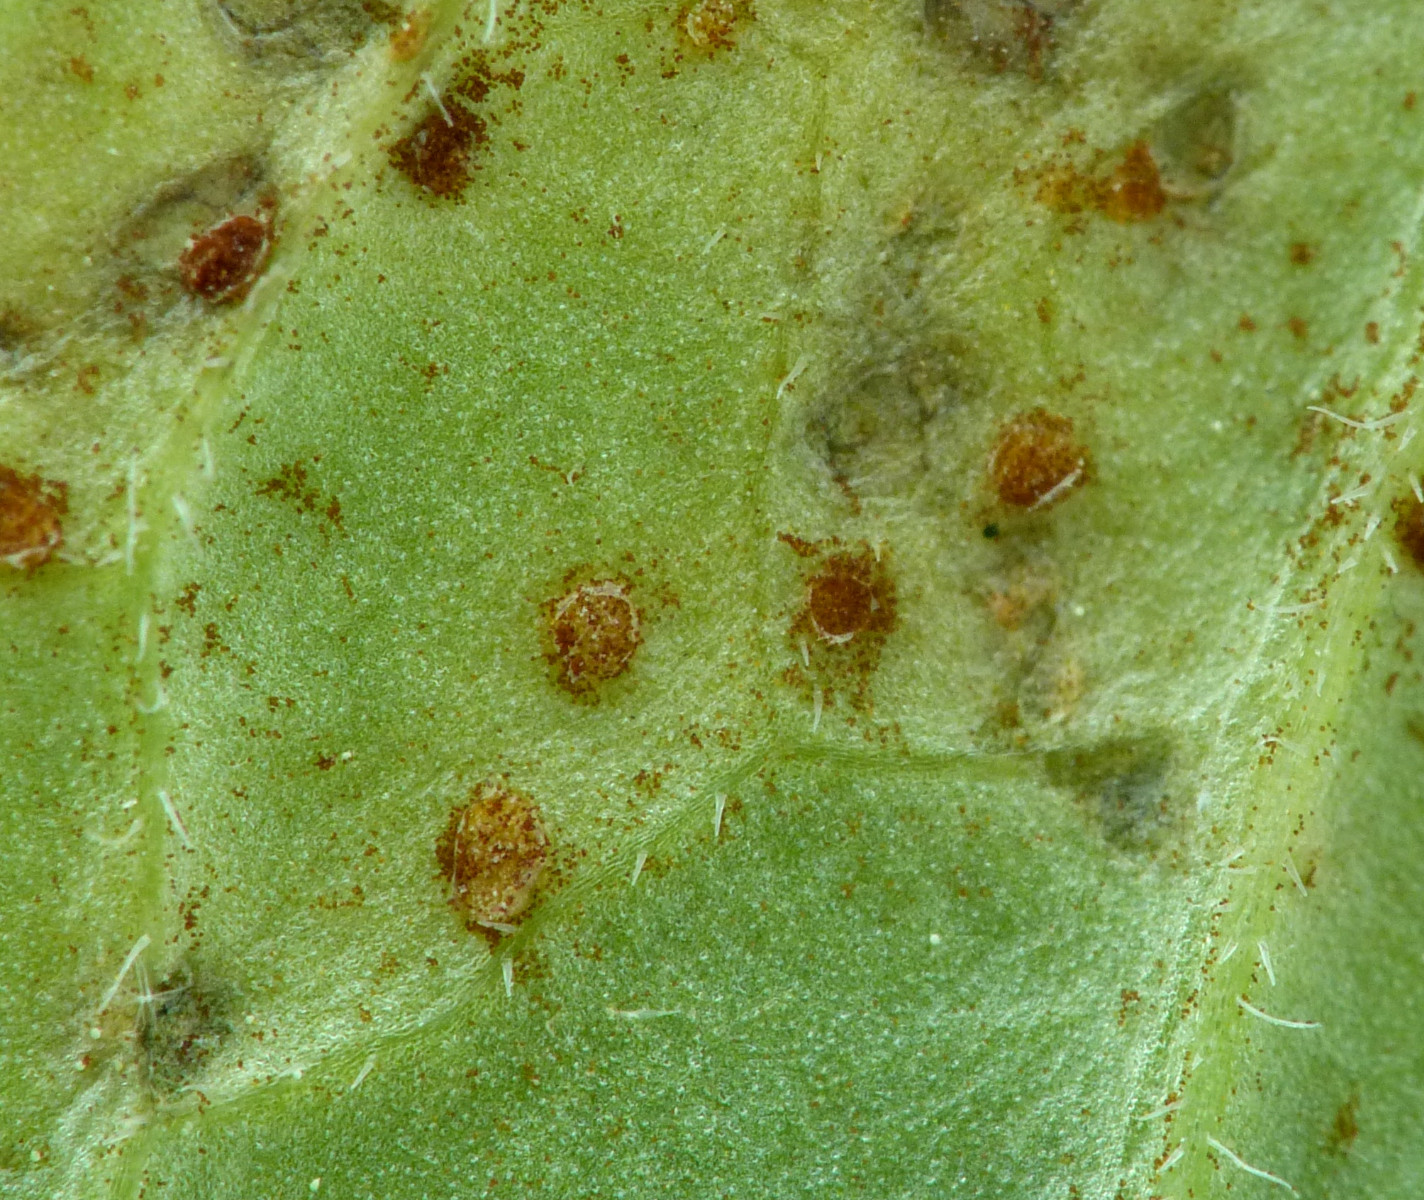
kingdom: Fungi
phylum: Basidiomycota
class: Pucciniomycetes
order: Pucciniales
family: Pucciniaceae
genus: Uromyces
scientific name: Uromyces valerianae
